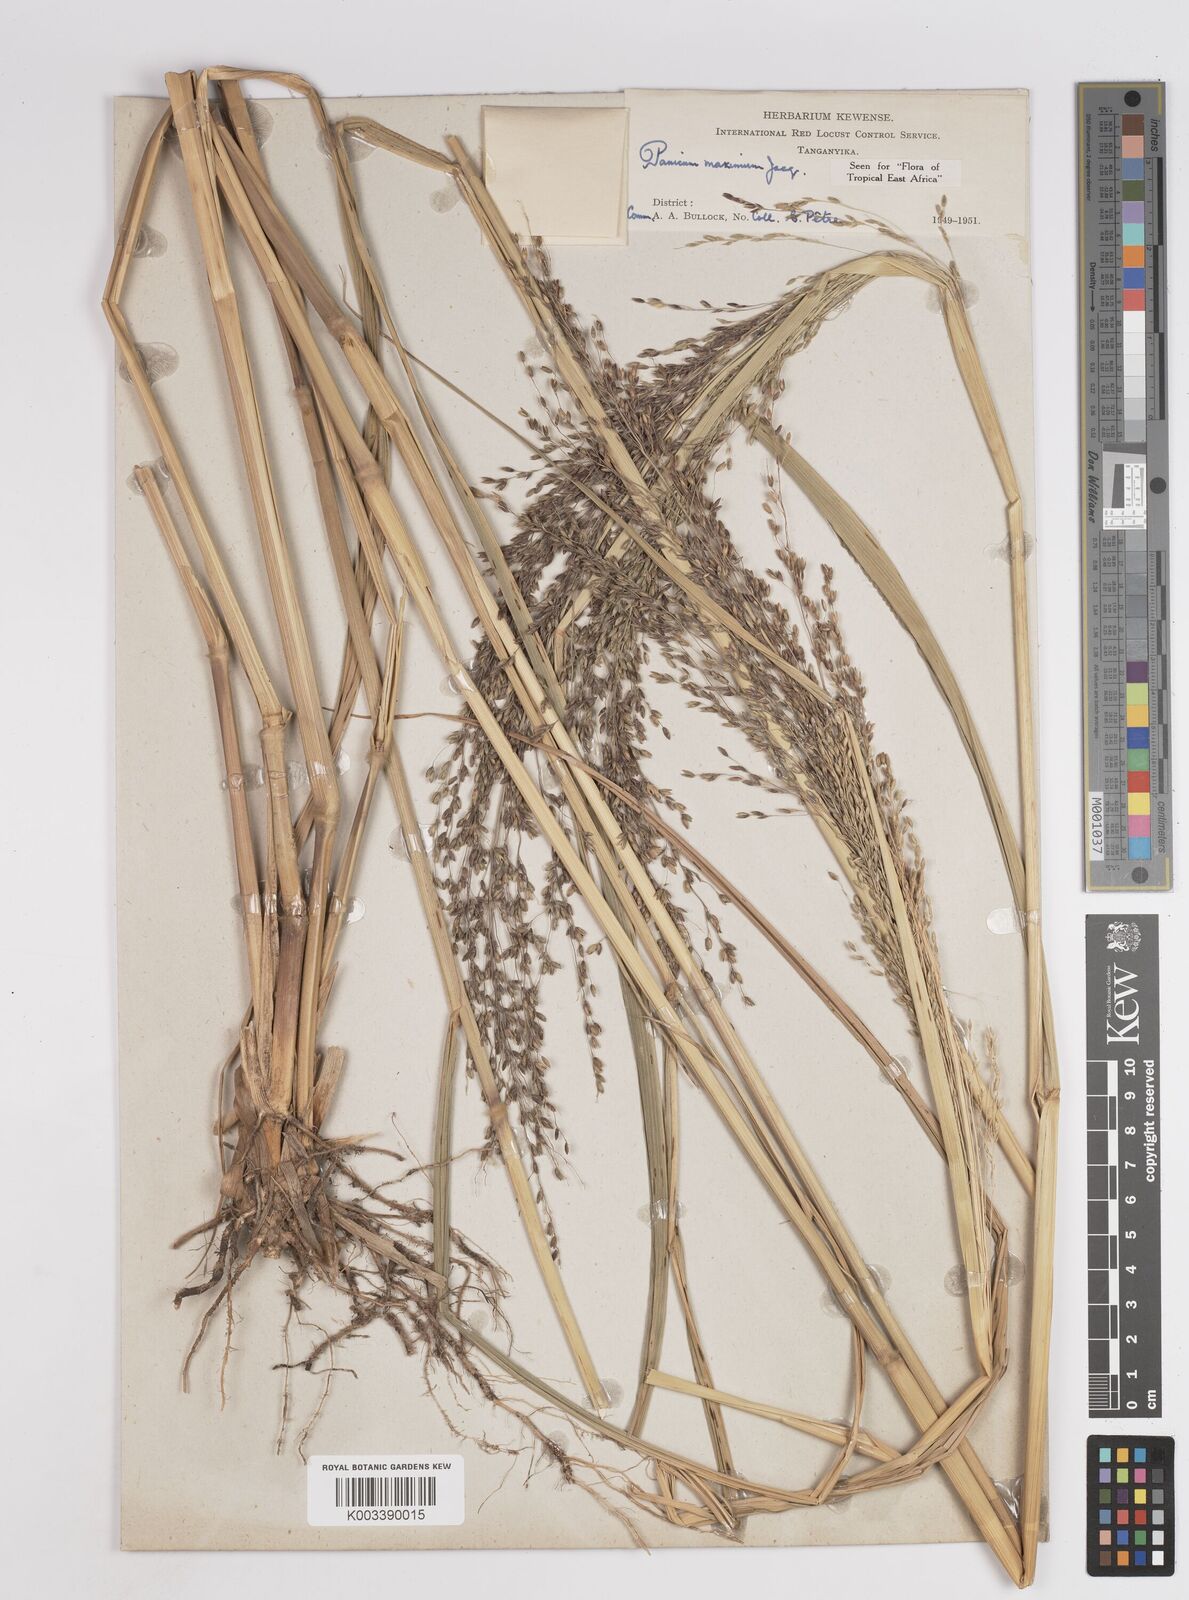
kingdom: Plantae
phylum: Tracheophyta
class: Liliopsida
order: Poales
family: Poaceae
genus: Megathyrsus
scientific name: Megathyrsus maximus
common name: Guineagrass
